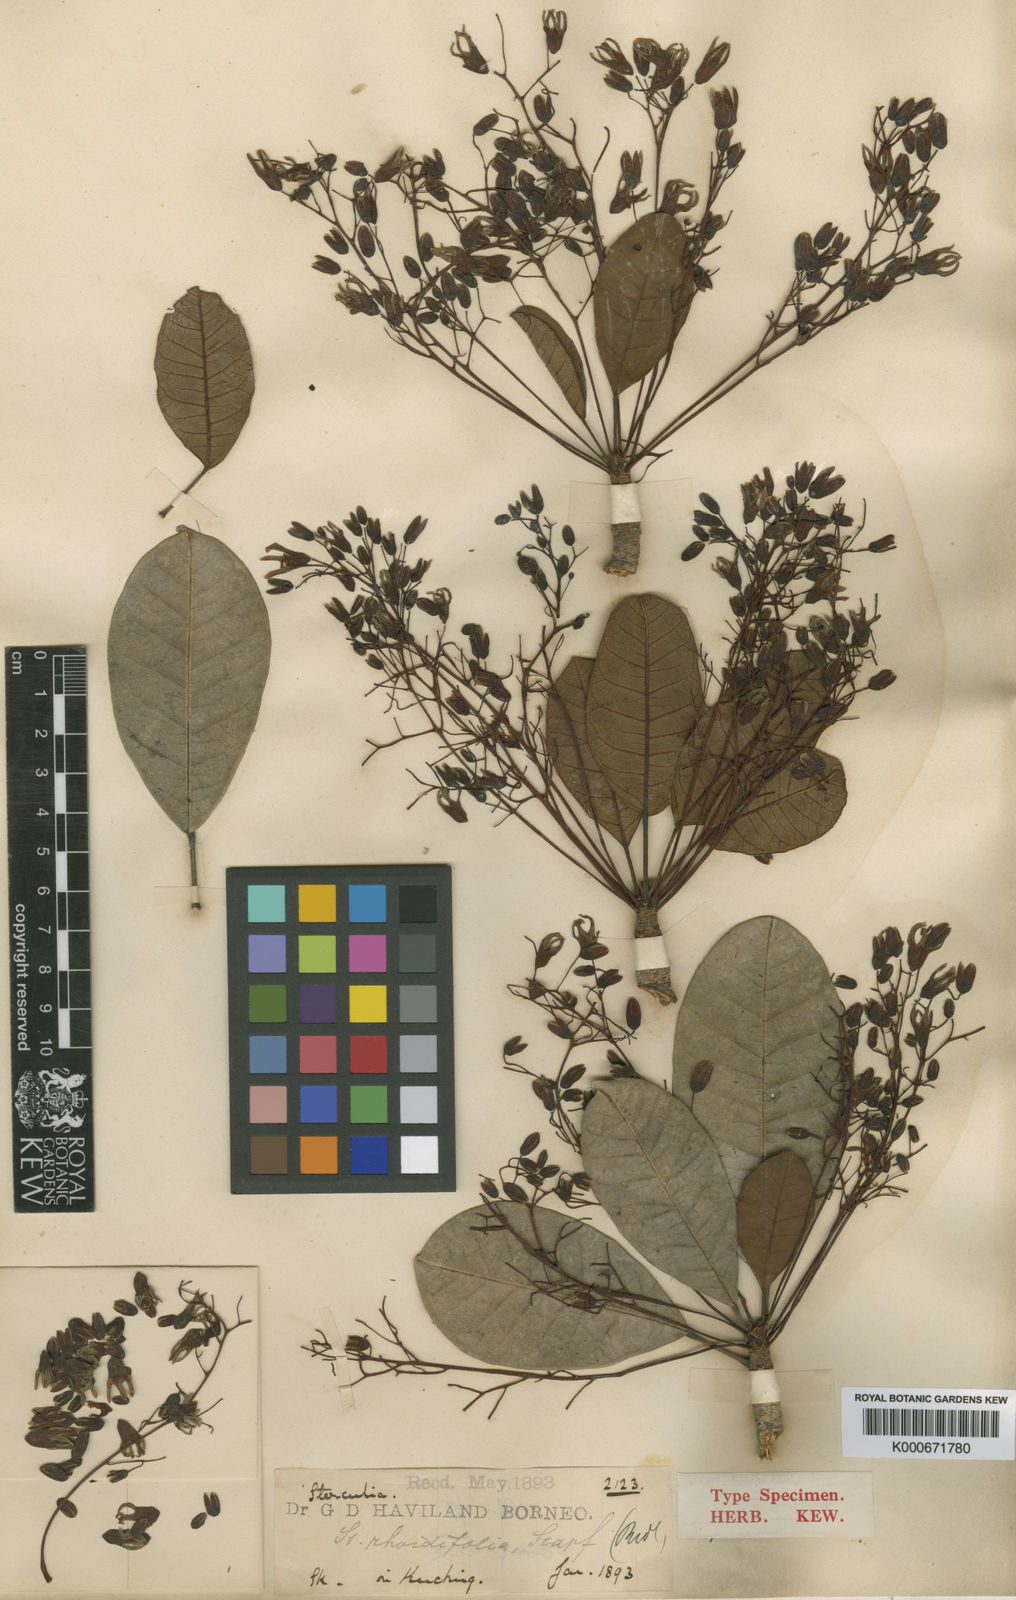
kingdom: Plantae
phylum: Tracheophyta
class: Magnoliopsida
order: Malvales
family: Malvaceae
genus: Sterculia
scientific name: Sterculia rhoidifolia
